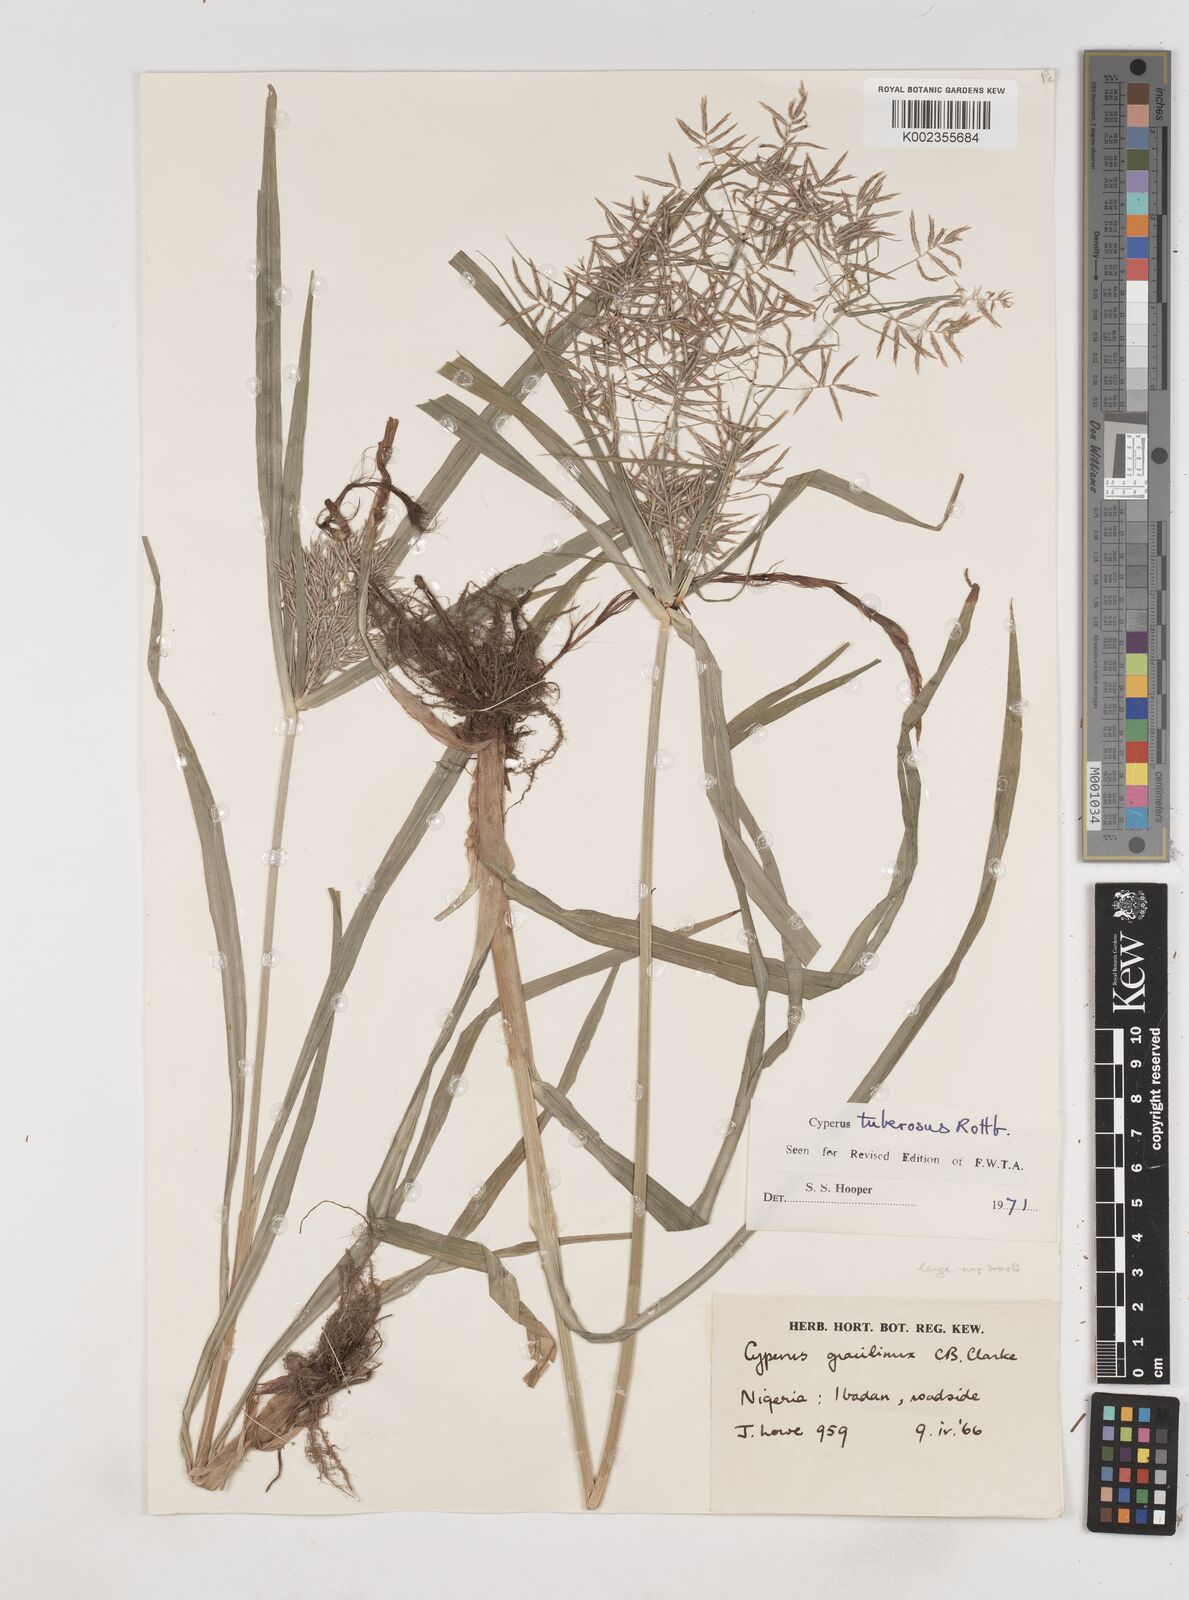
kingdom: Plantae
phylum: Tracheophyta
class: Liliopsida
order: Poales
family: Cyperaceae
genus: Cyperus
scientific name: Cyperus tuberosus
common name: Nut grass
